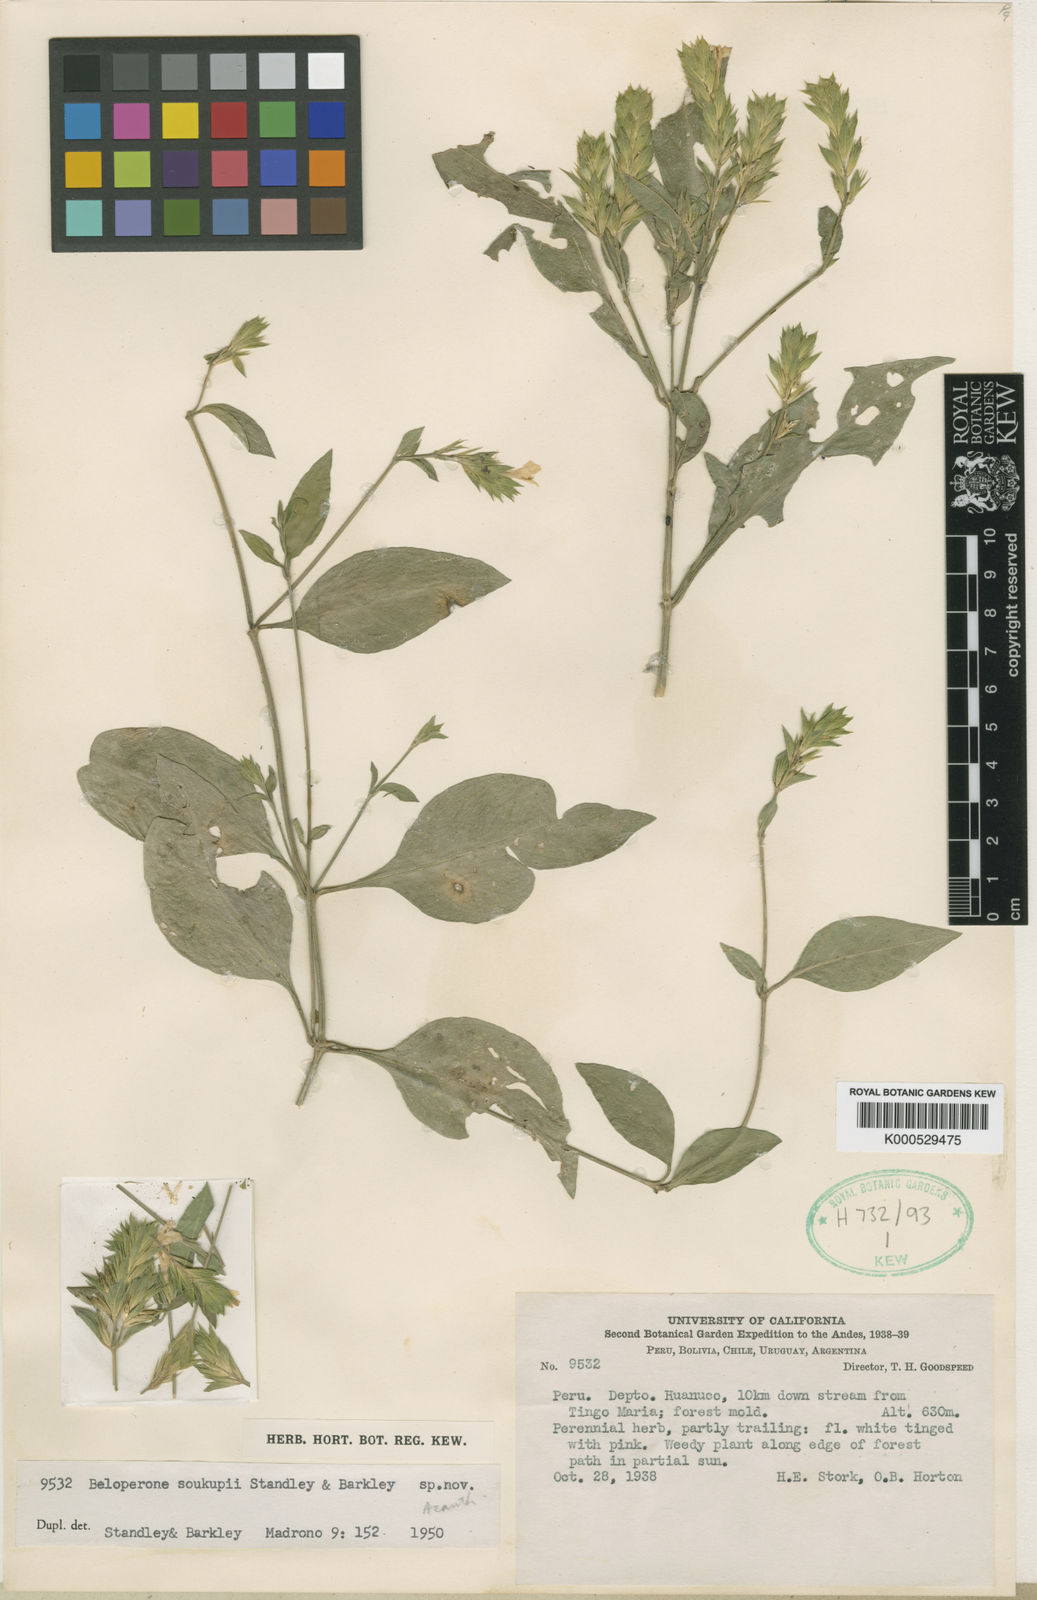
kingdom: Plantae
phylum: Tracheophyta
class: Magnoliopsida
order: Lamiales
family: Acanthaceae
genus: Justicia
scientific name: Justicia soukupii
